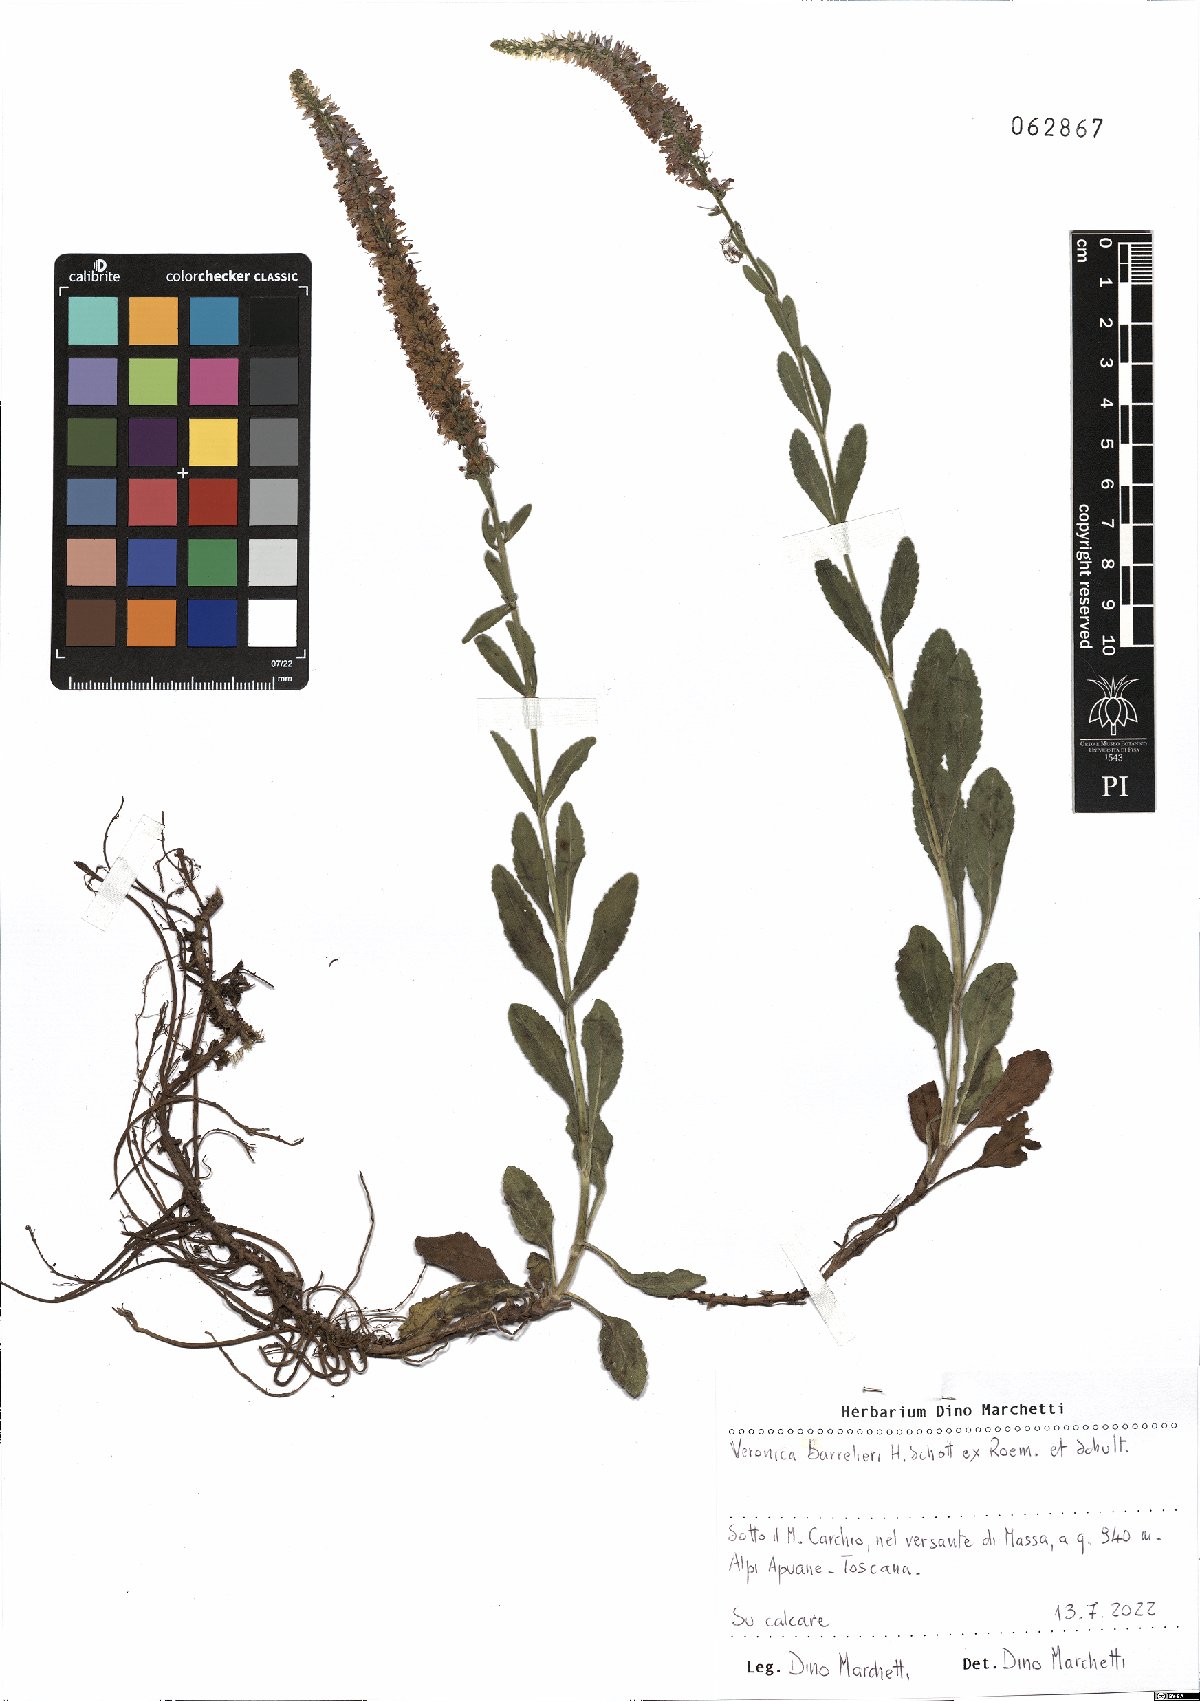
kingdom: Plantae
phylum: Tracheophyta
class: Magnoliopsida
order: Lamiales
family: Plantaginaceae
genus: Veronica
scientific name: Veronica barrelieri
